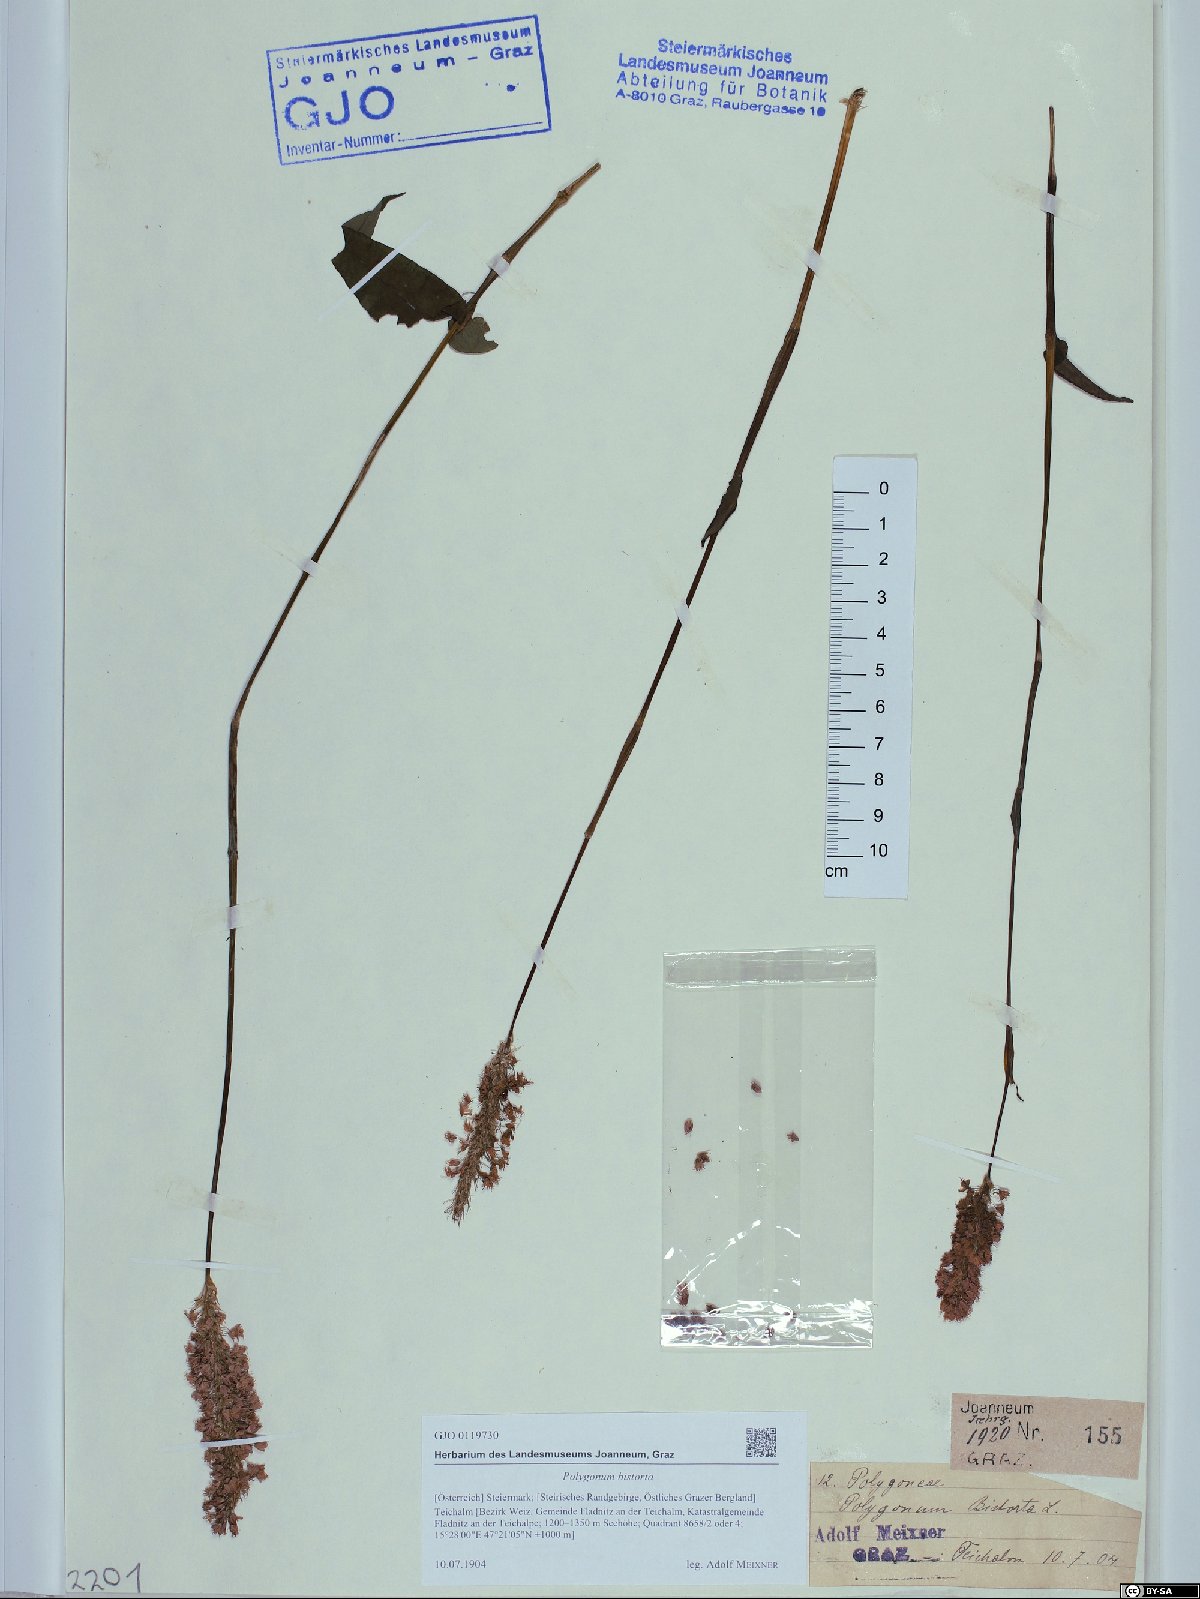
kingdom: Plantae
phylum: Tracheophyta
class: Magnoliopsida
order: Caryophyllales
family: Polygonaceae
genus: Bistorta
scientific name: Bistorta officinalis
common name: Common bistort
